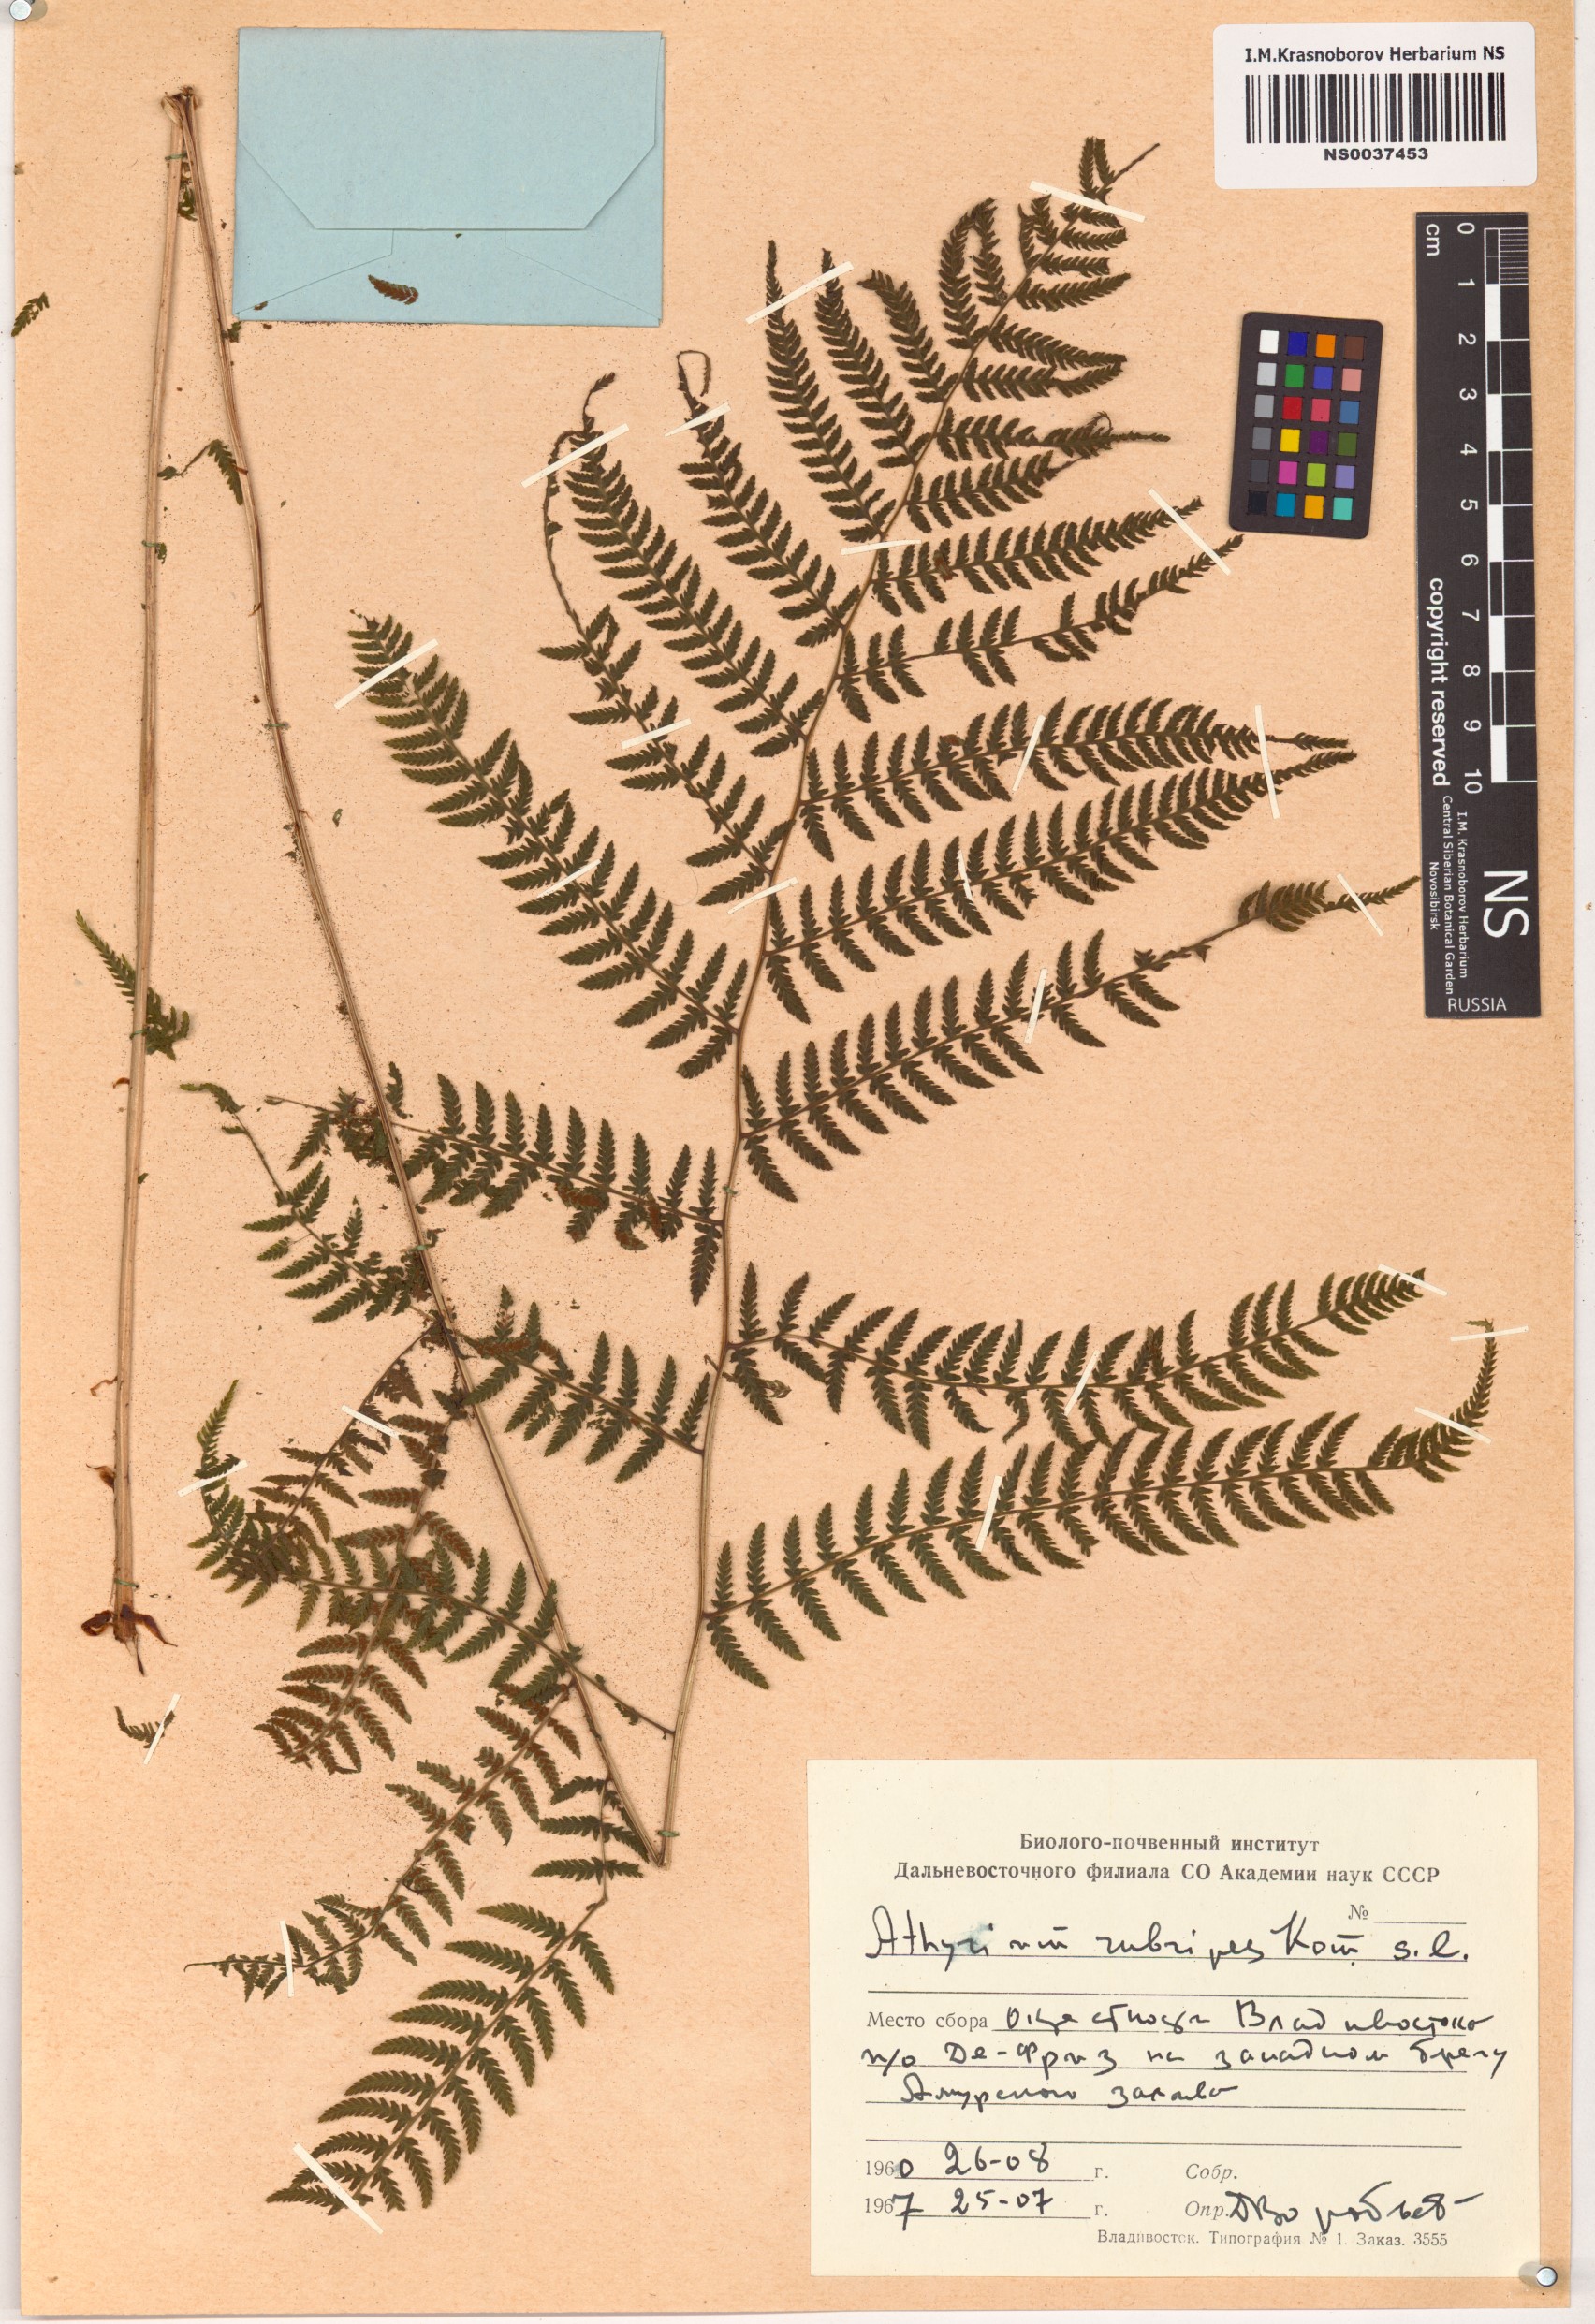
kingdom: Plantae
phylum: Tracheophyta
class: Polypodiopsida
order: Polypodiales
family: Athyriaceae
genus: Athyrium
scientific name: Athyrium rubripes
